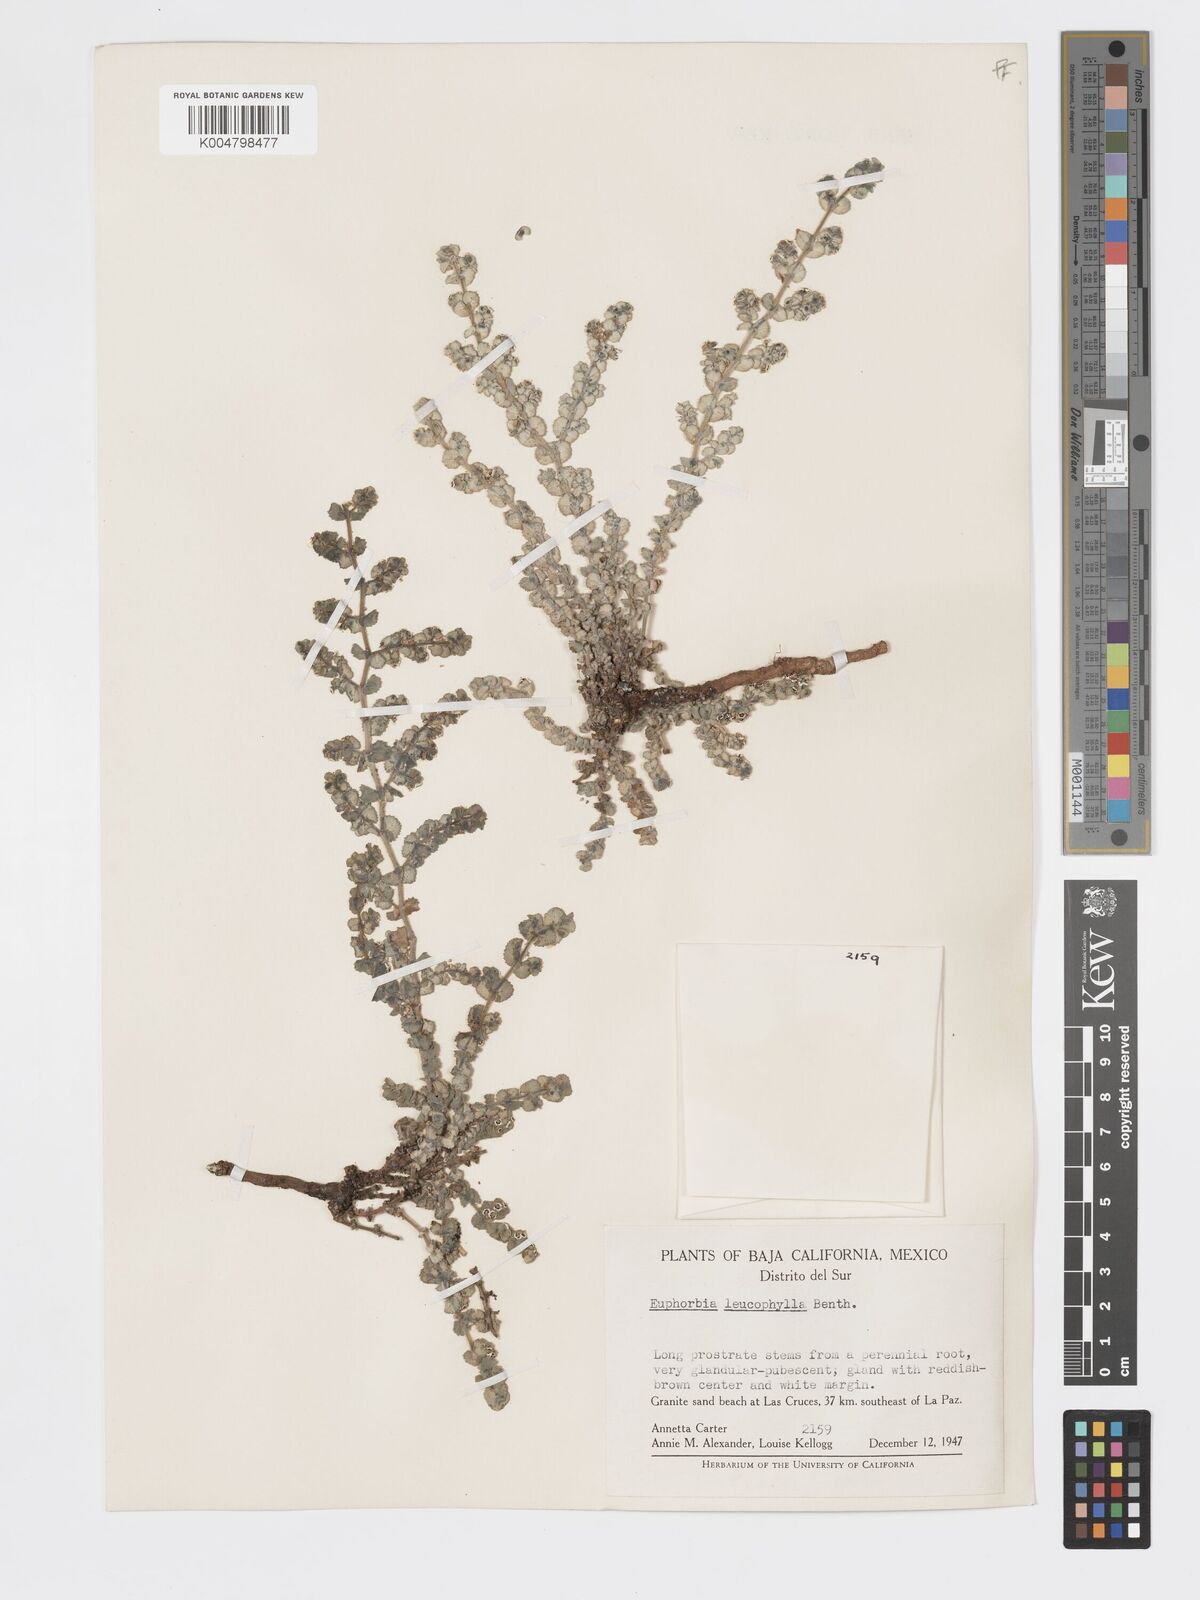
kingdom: Plantae
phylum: Tracheophyta
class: Magnoliopsida
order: Malpighiales
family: Euphorbiaceae
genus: Euphorbia
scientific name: Euphorbia leucophylla
